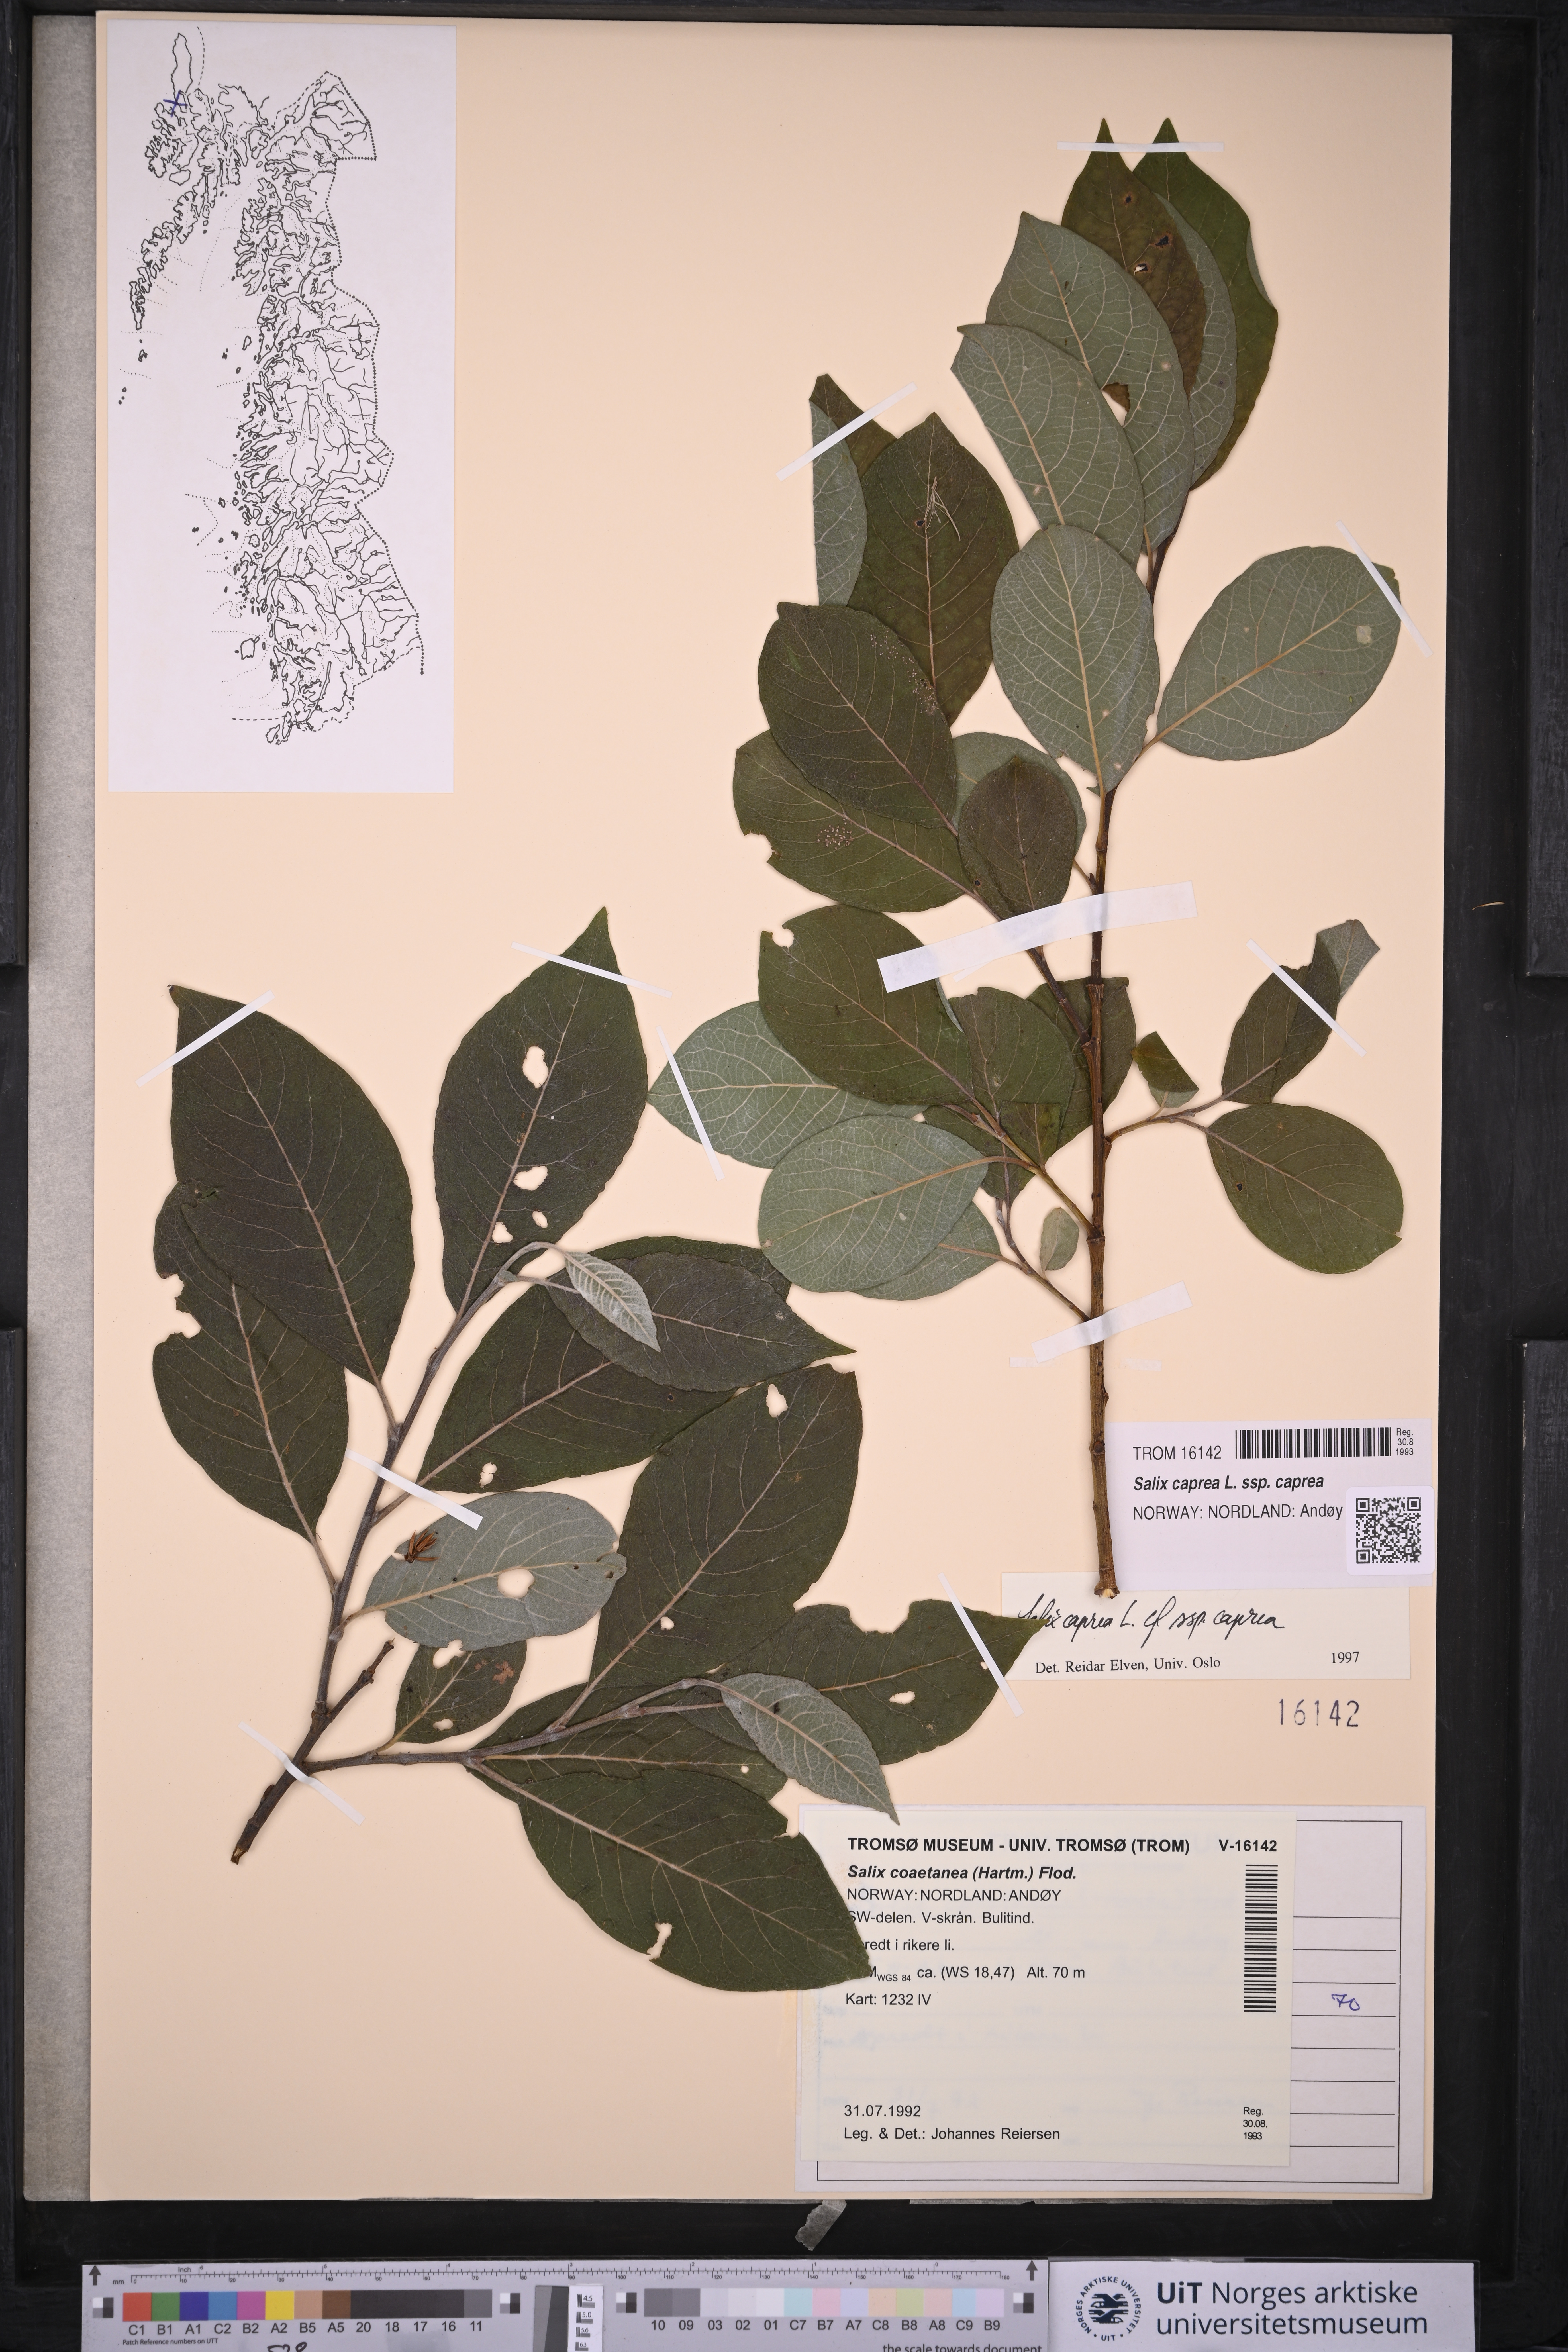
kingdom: Plantae
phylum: Tracheophyta
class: Magnoliopsida
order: Malpighiales
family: Salicaceae
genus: Salix
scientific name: Salix caprea
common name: Goat willow
